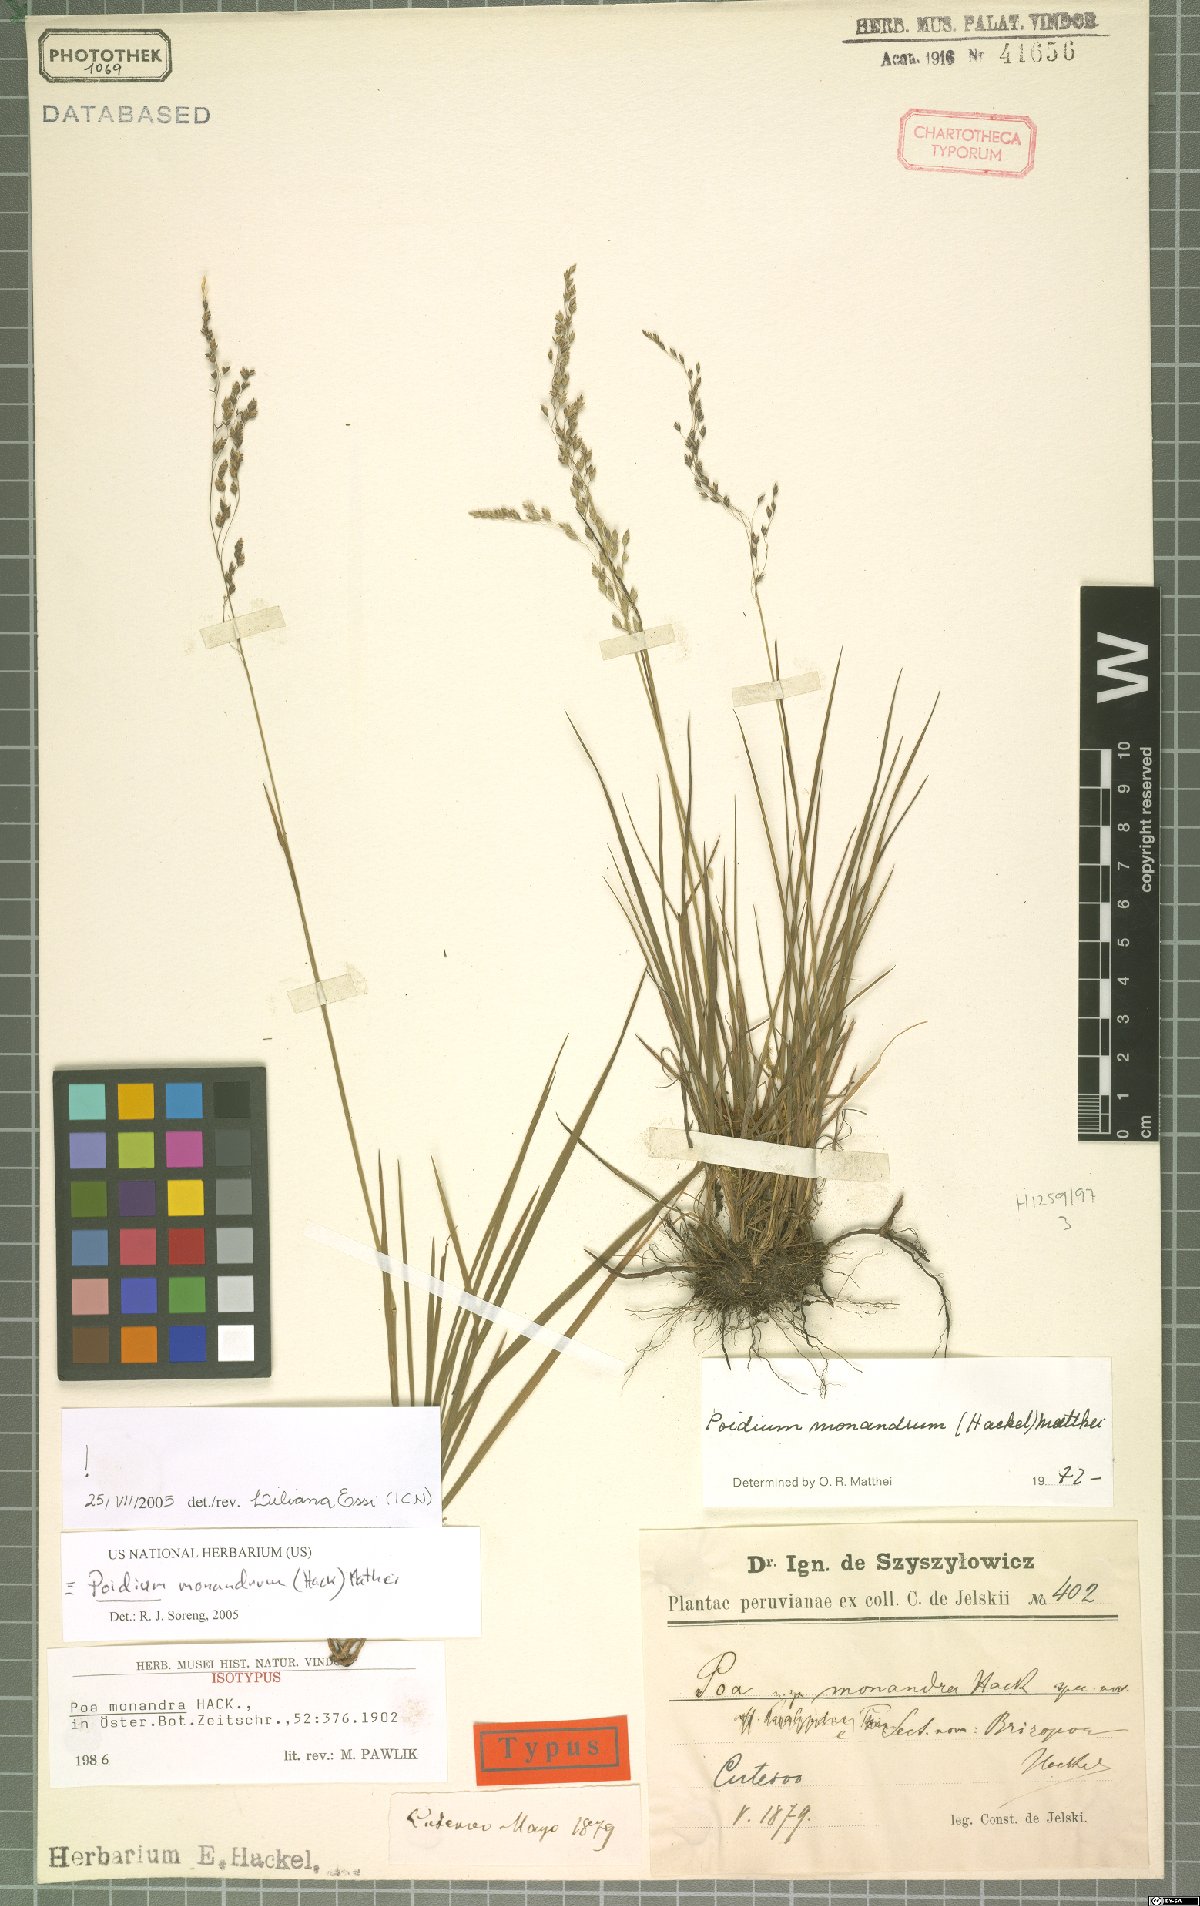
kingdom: Plantae
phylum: Tracheophyta
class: Liliopsida
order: Poales
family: Poaceae
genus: Poidium
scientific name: Poidium monandrum
